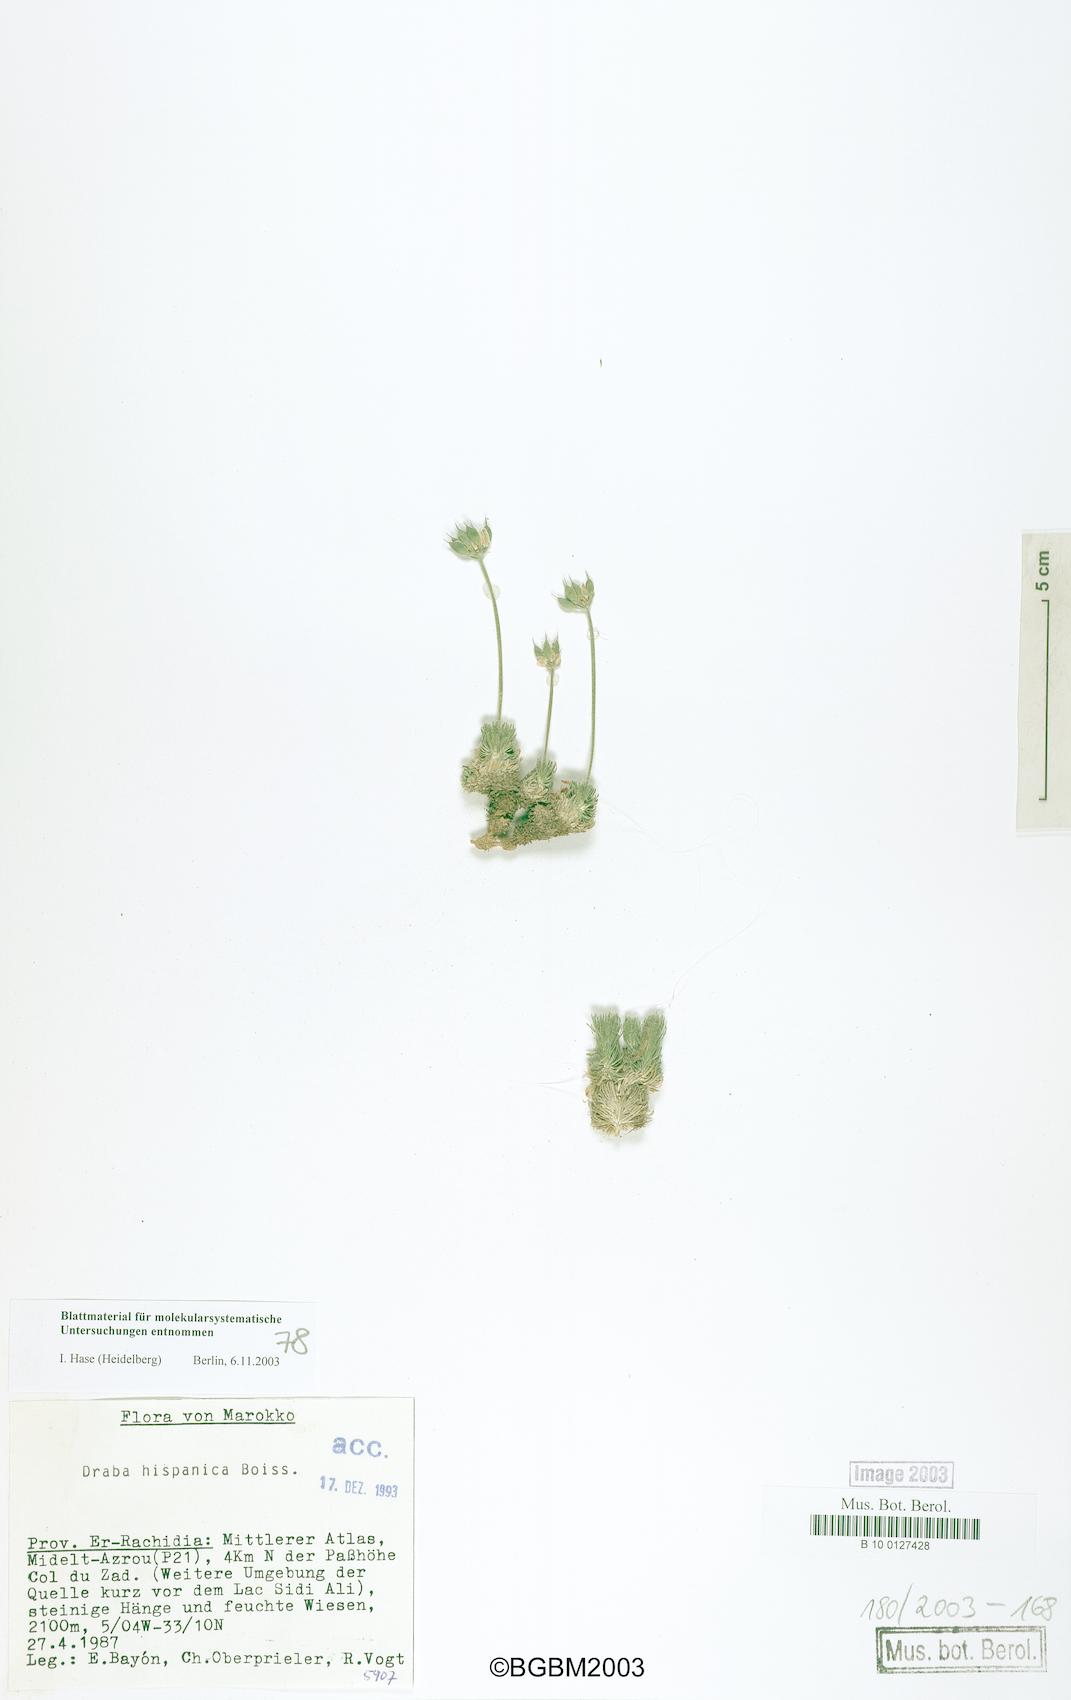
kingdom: Plantae
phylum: Tracheophyta
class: Magnoliopsida
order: Brassicales
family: Brassicaceae
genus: Draba
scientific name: Draba hispanica
